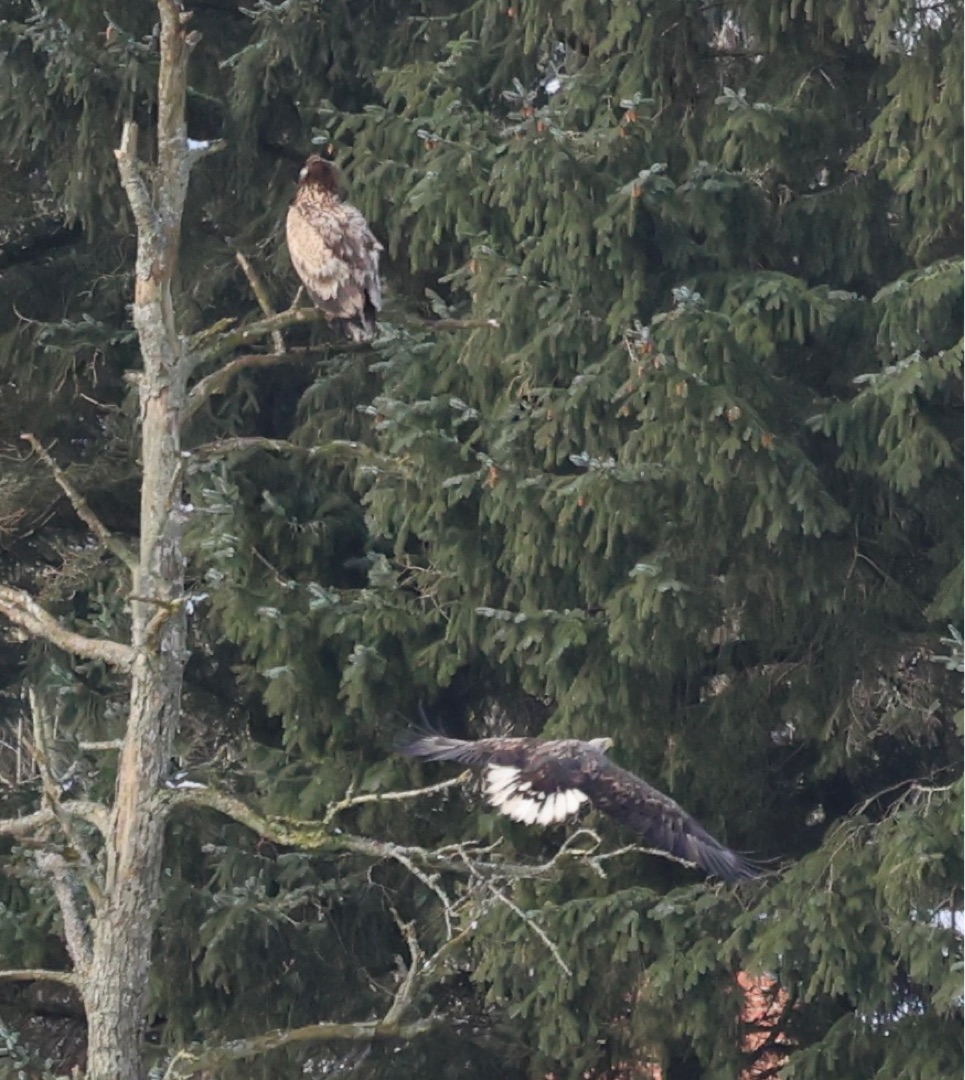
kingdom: Animalia
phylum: Chordata
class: Aves
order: Accipitriformes
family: Accipitridae
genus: Haliaeetus
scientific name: Haliaeetus albicilla
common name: Havørn
